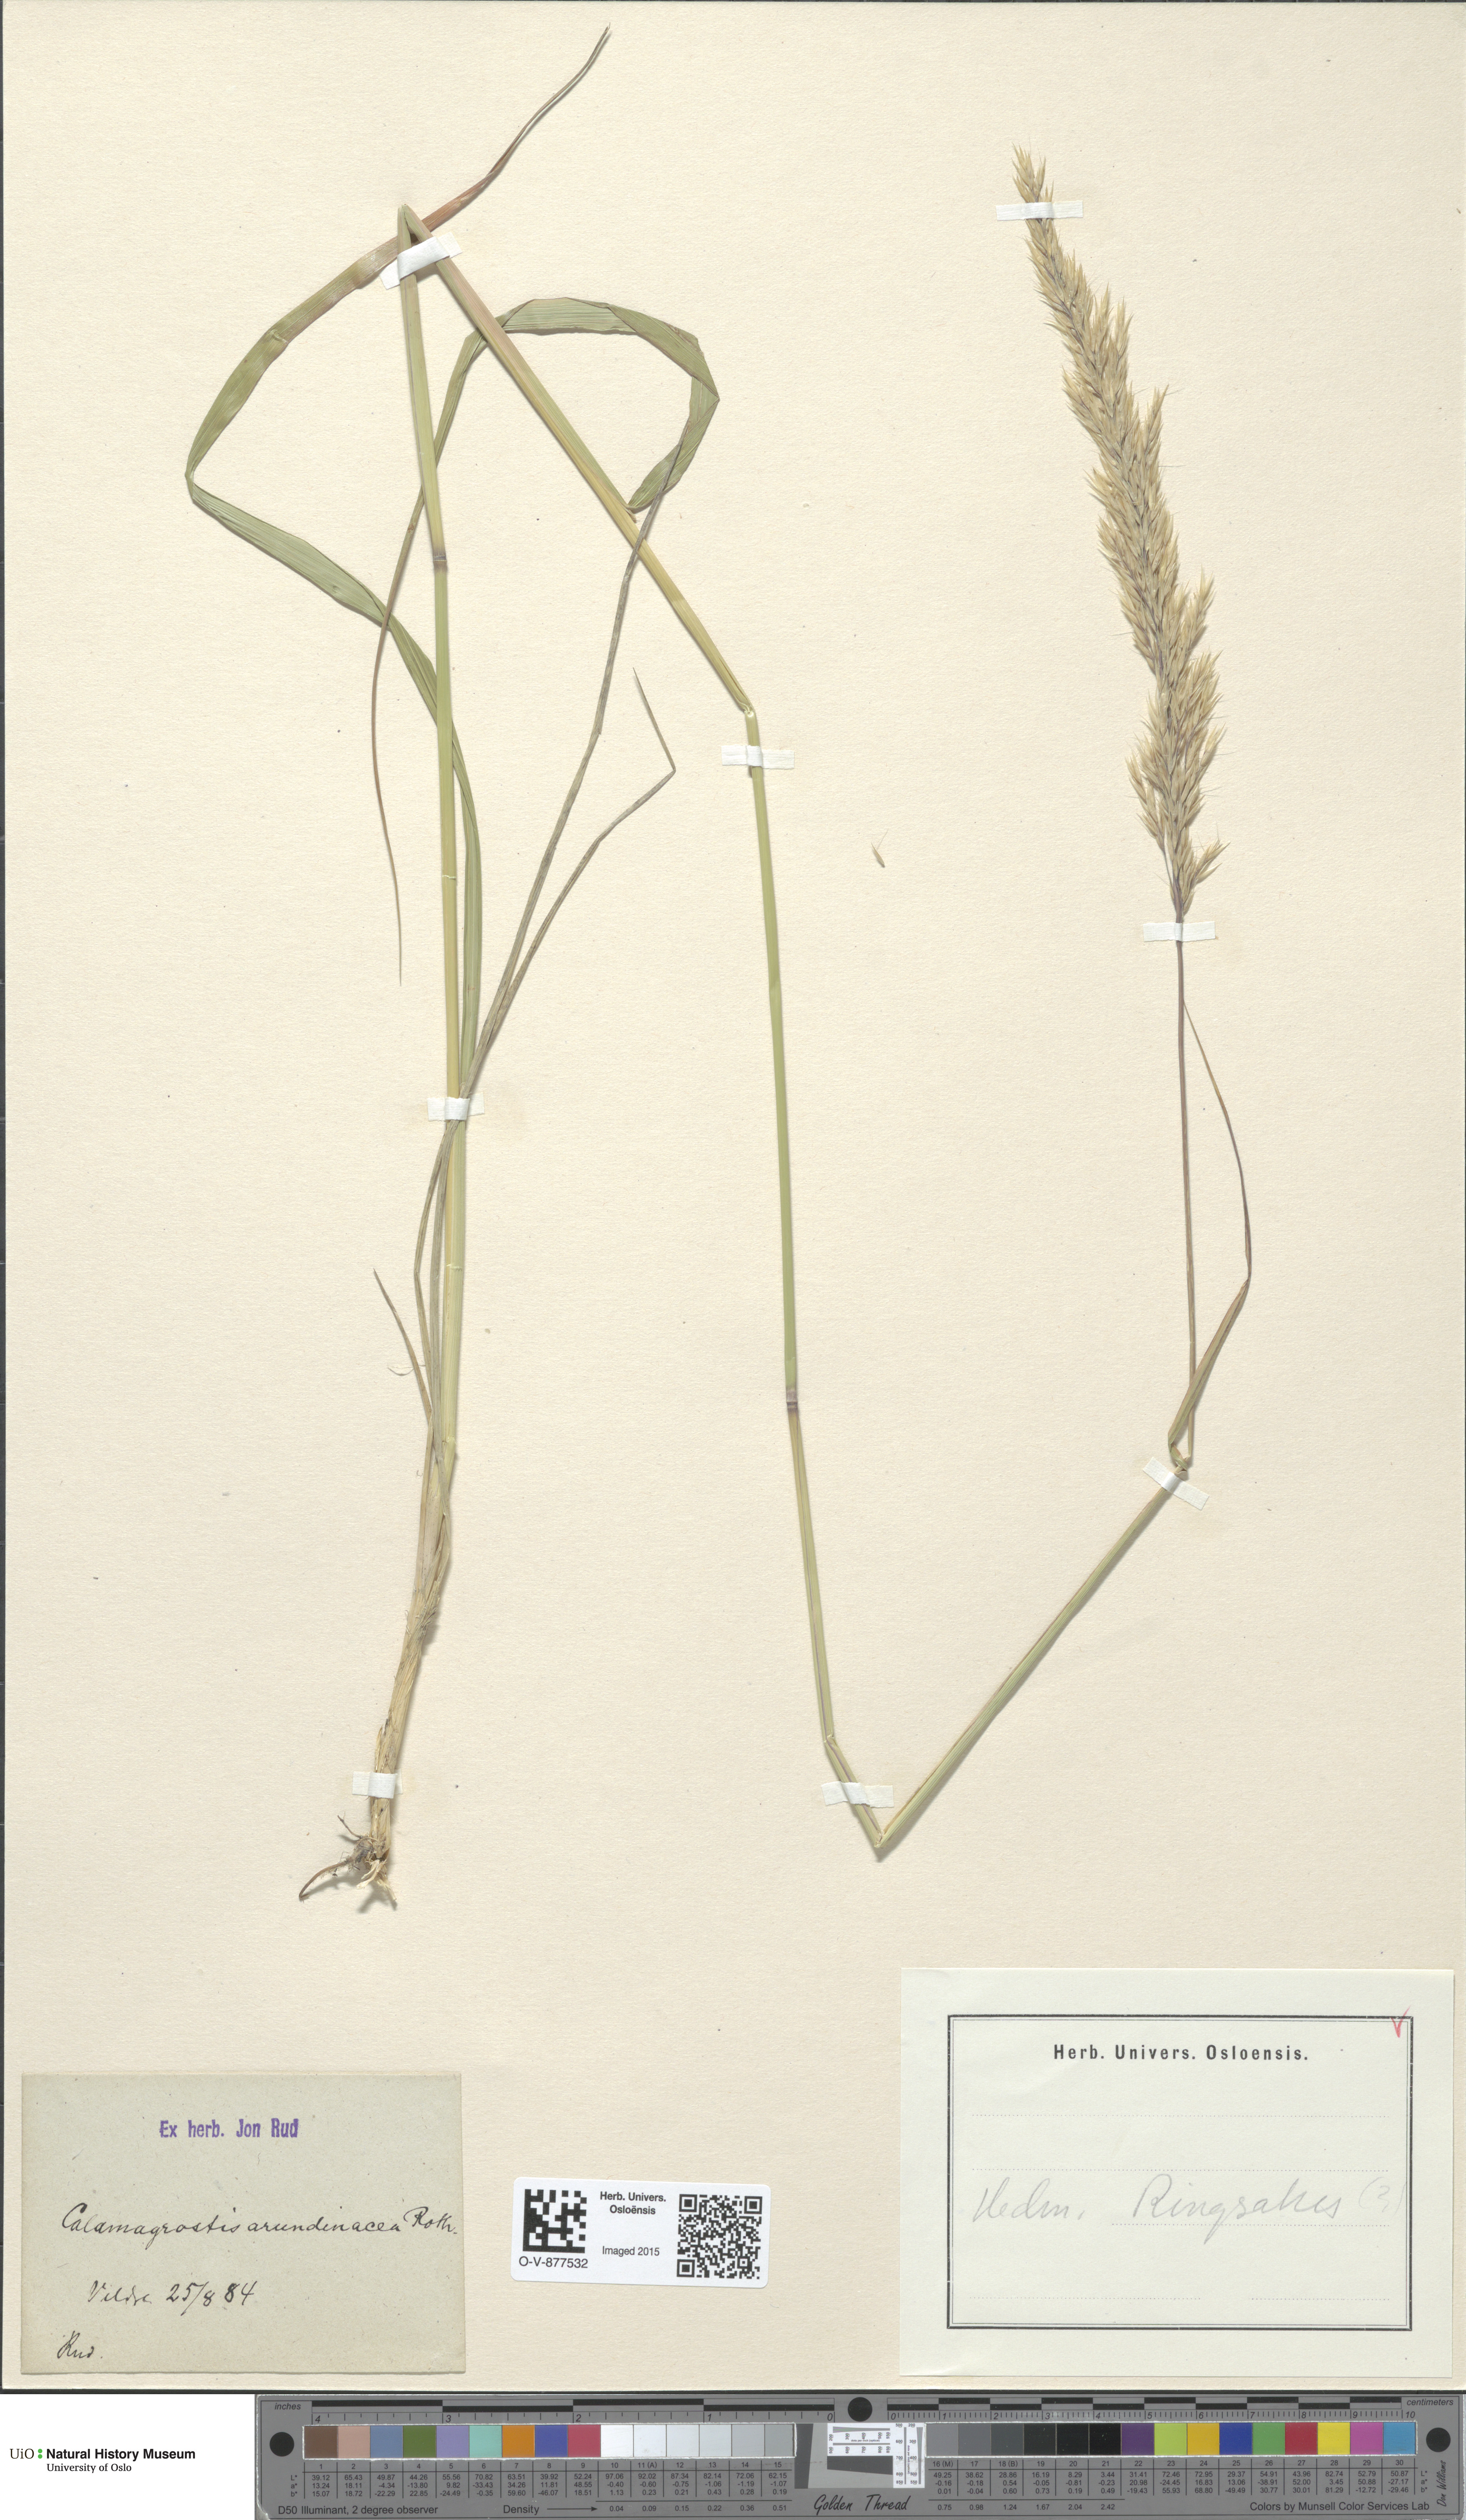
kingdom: Plantae
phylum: Tracheophyta
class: Liliopsida
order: Poales
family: Poaceae
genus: Calamagrostis
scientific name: Calamagrostis arundinacea
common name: Metskastik
